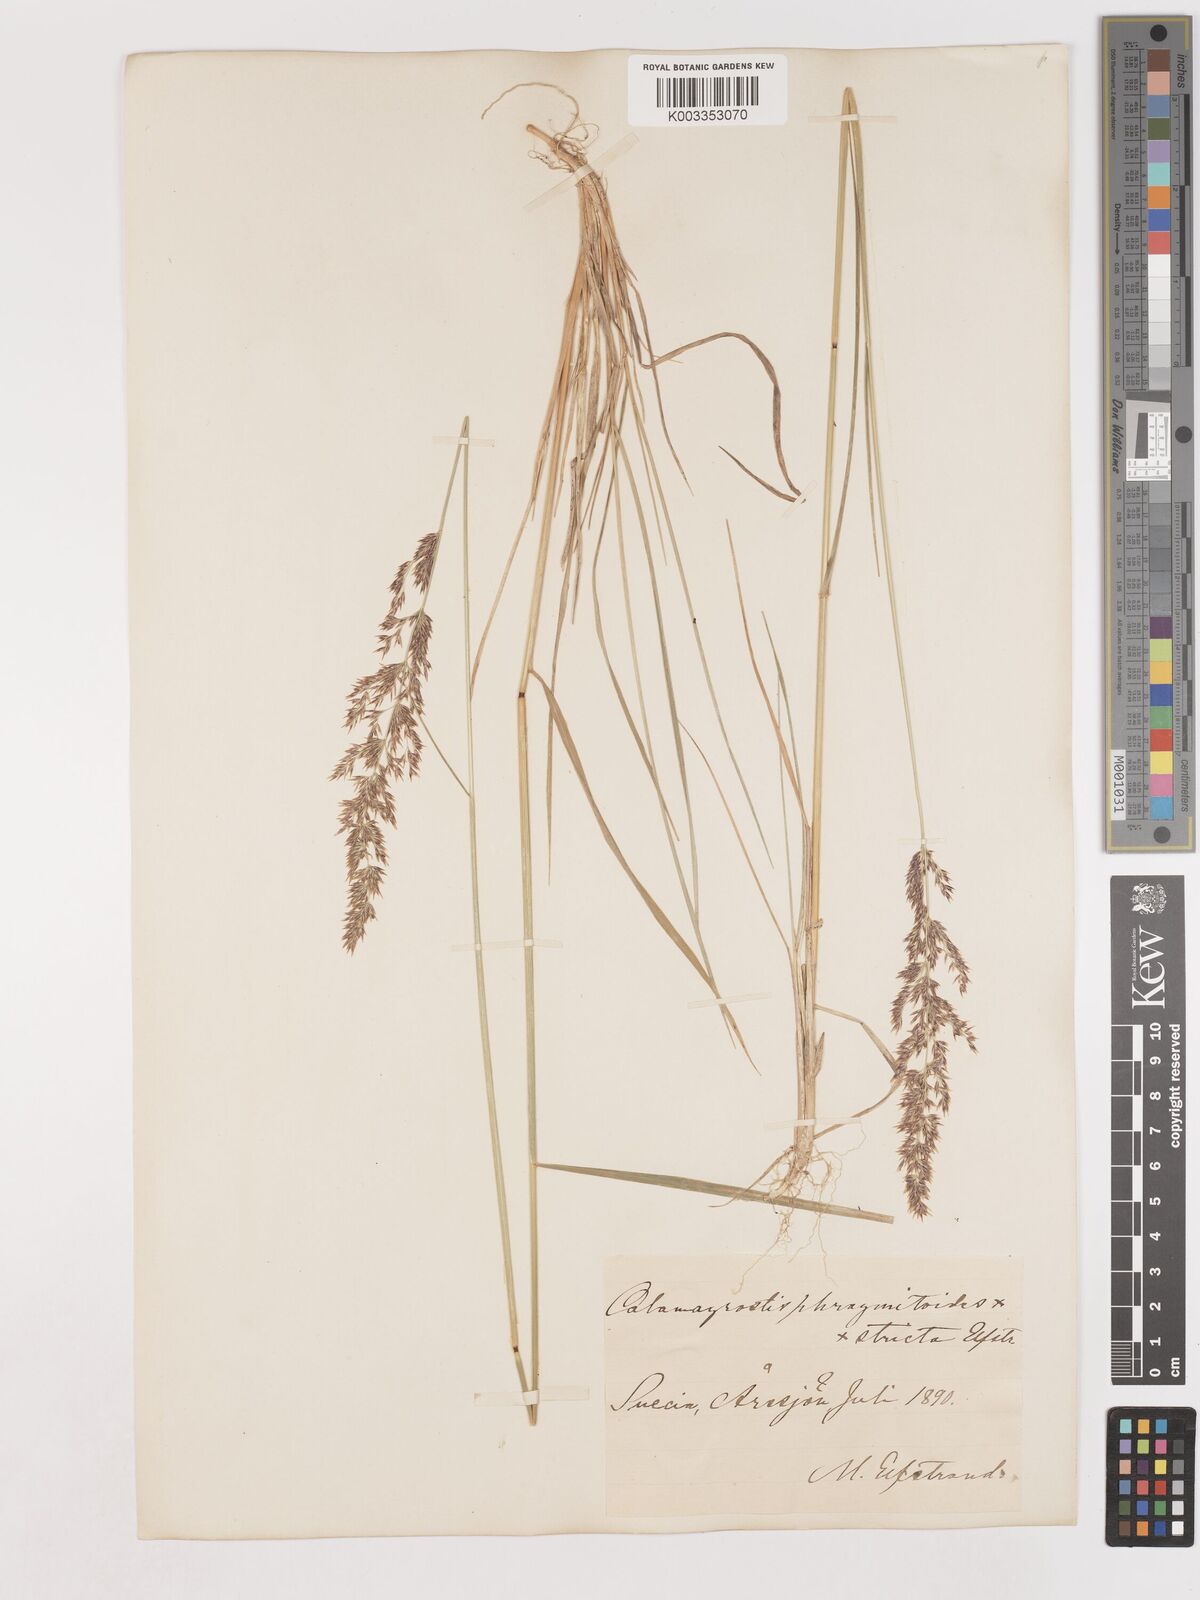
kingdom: Plantae
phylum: Tracheophyta
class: Liliopsida
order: Poales
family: Poaceae
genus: Calamagrostis
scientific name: Calamagrostis epigejos
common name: Wood small-reed
